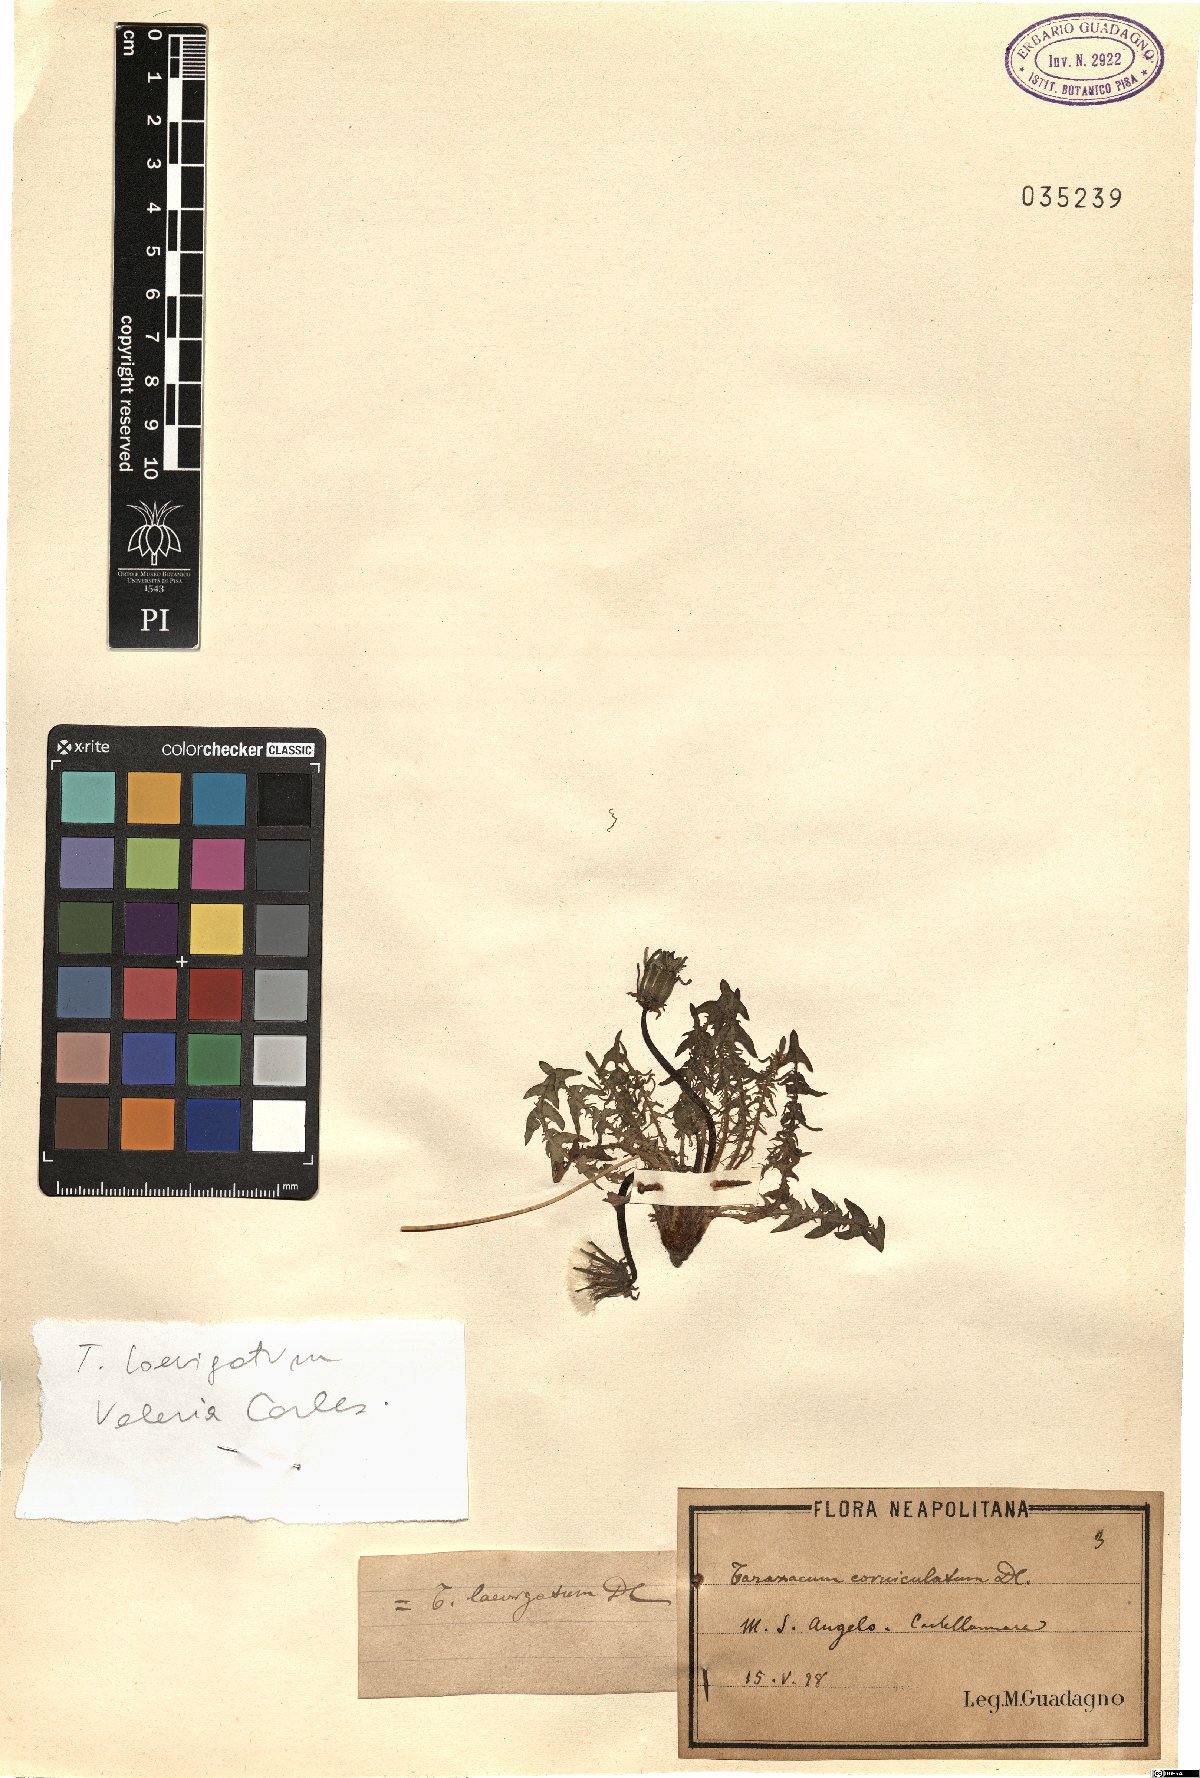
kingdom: Plantae
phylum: Tracheophyta
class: Magnoliopsida
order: Asterales
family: Asteraceae
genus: Taraxacum
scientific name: Taraxacum erythrospermum
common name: Rock dandelion
